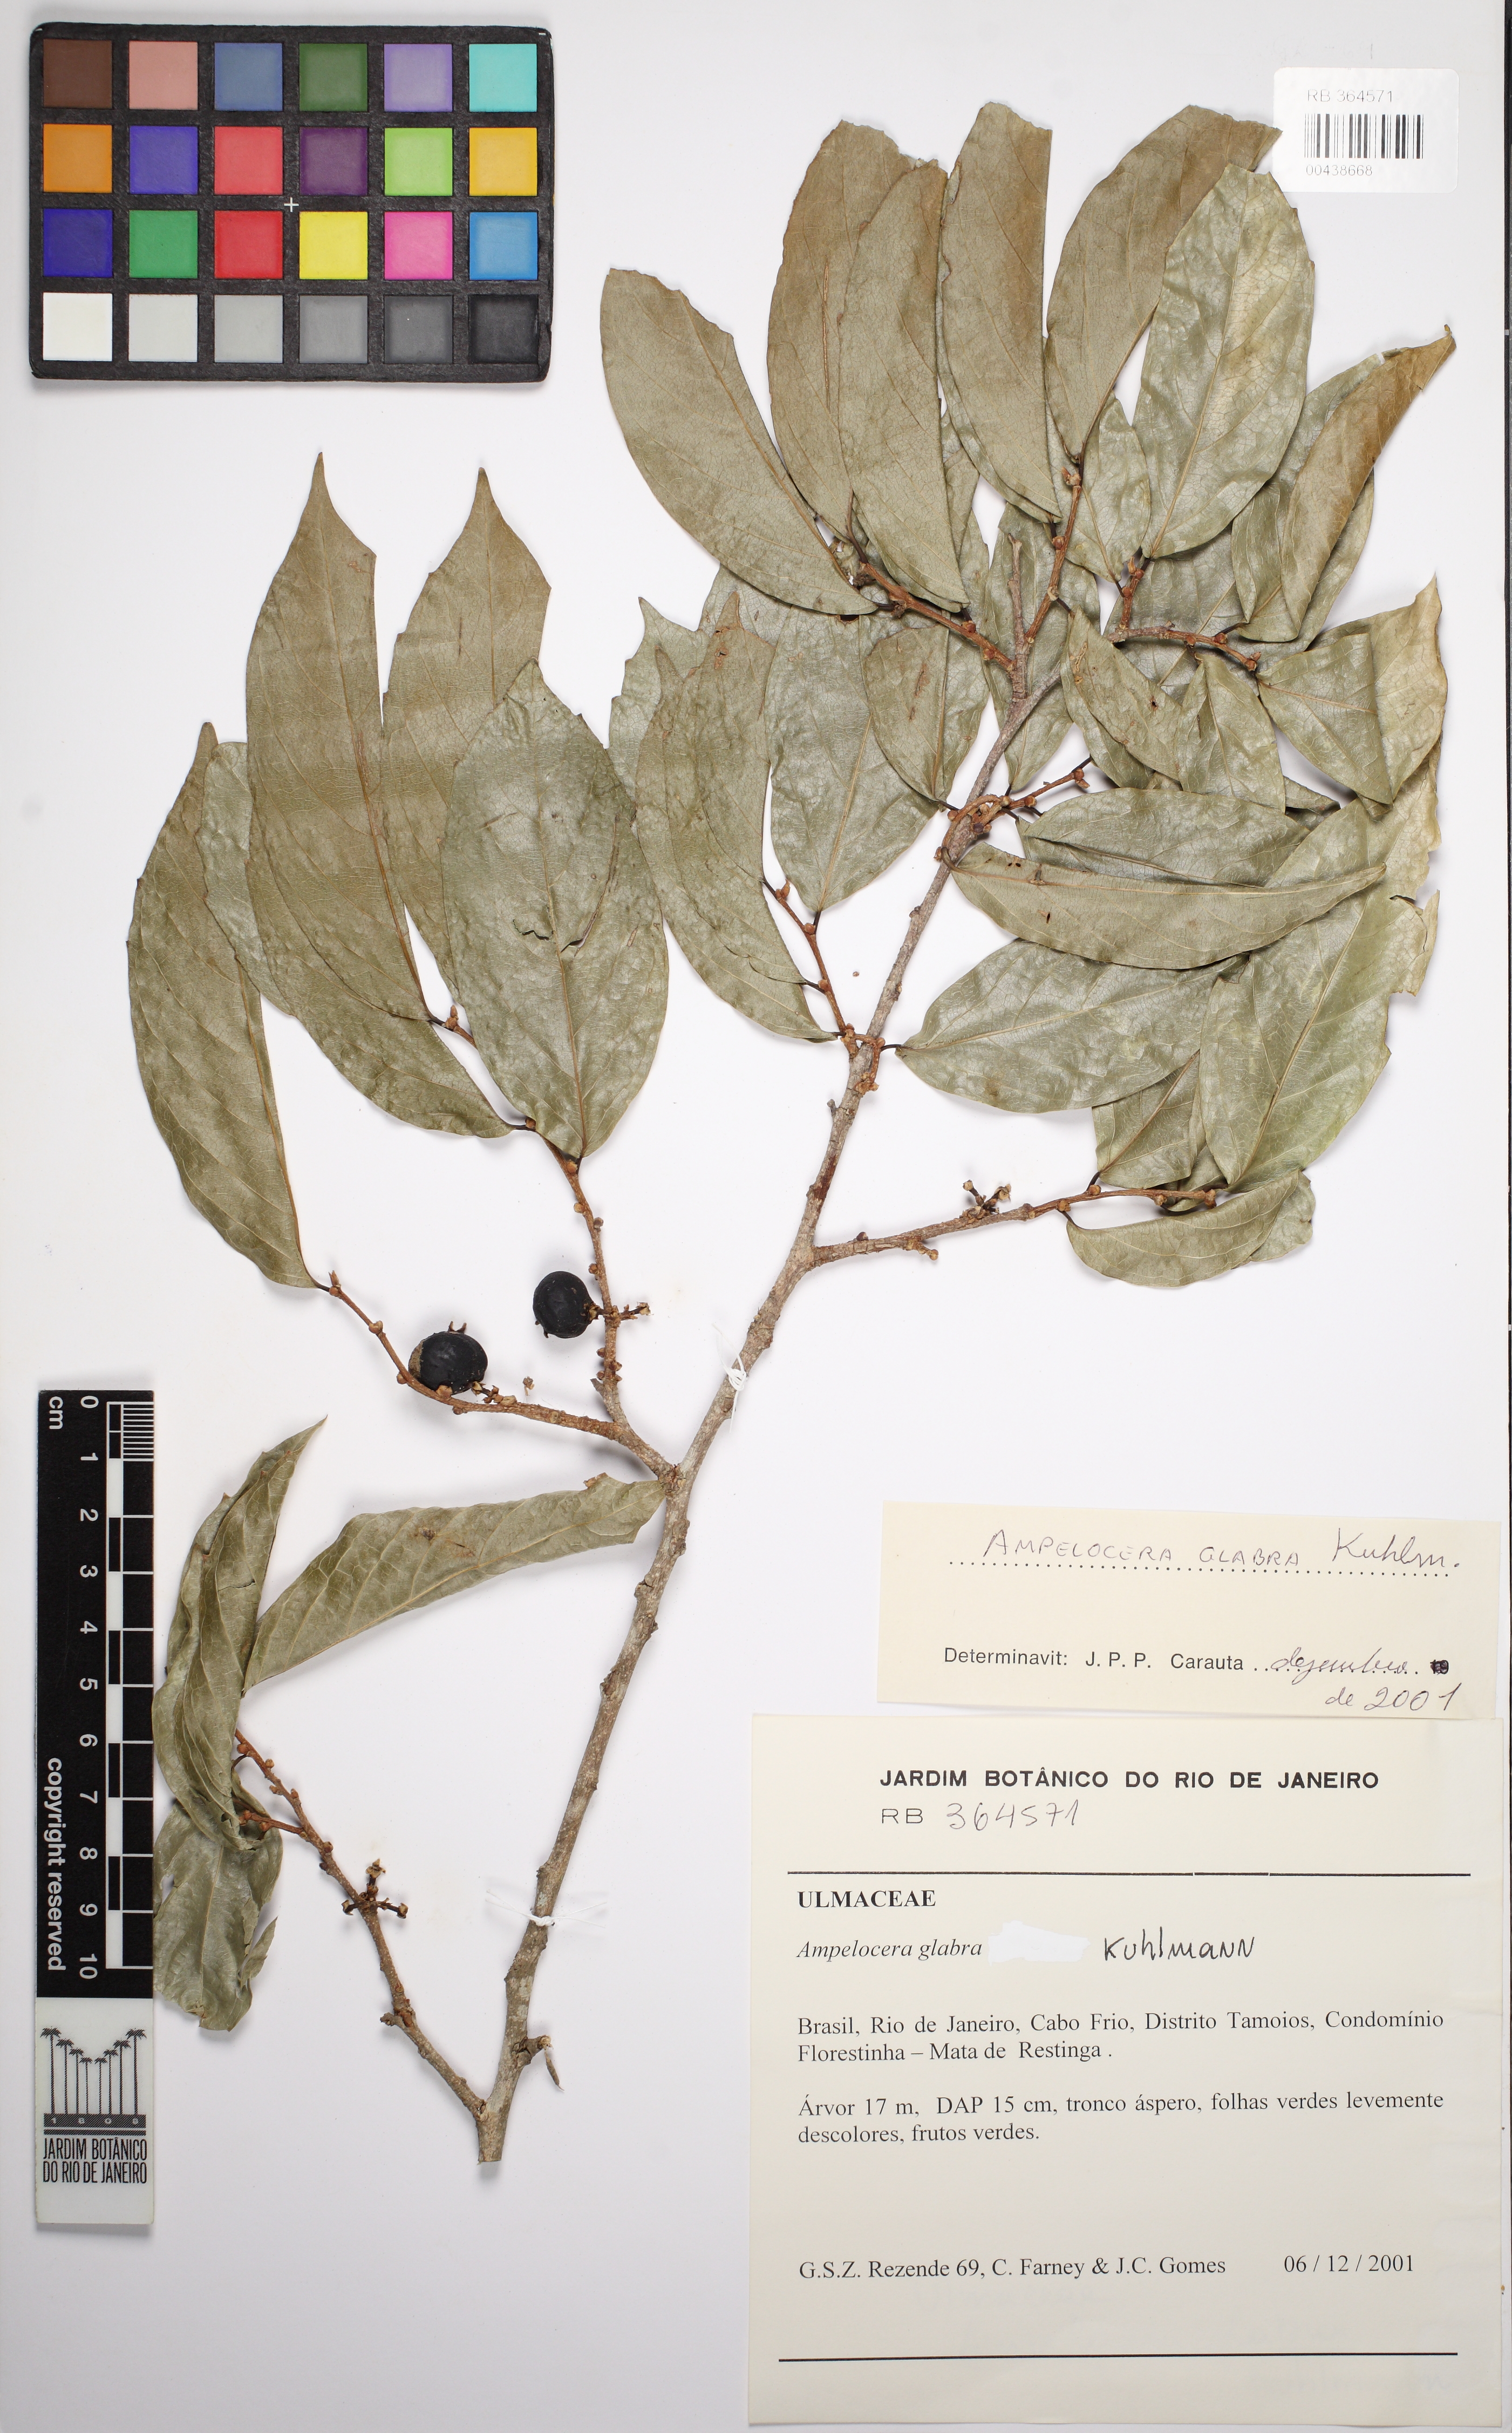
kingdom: Plantae
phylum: Tracheophyta
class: Magnoliopsida
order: Rosales
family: Cannabaceae
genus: Ampelocera
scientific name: Ampelocera glabra
